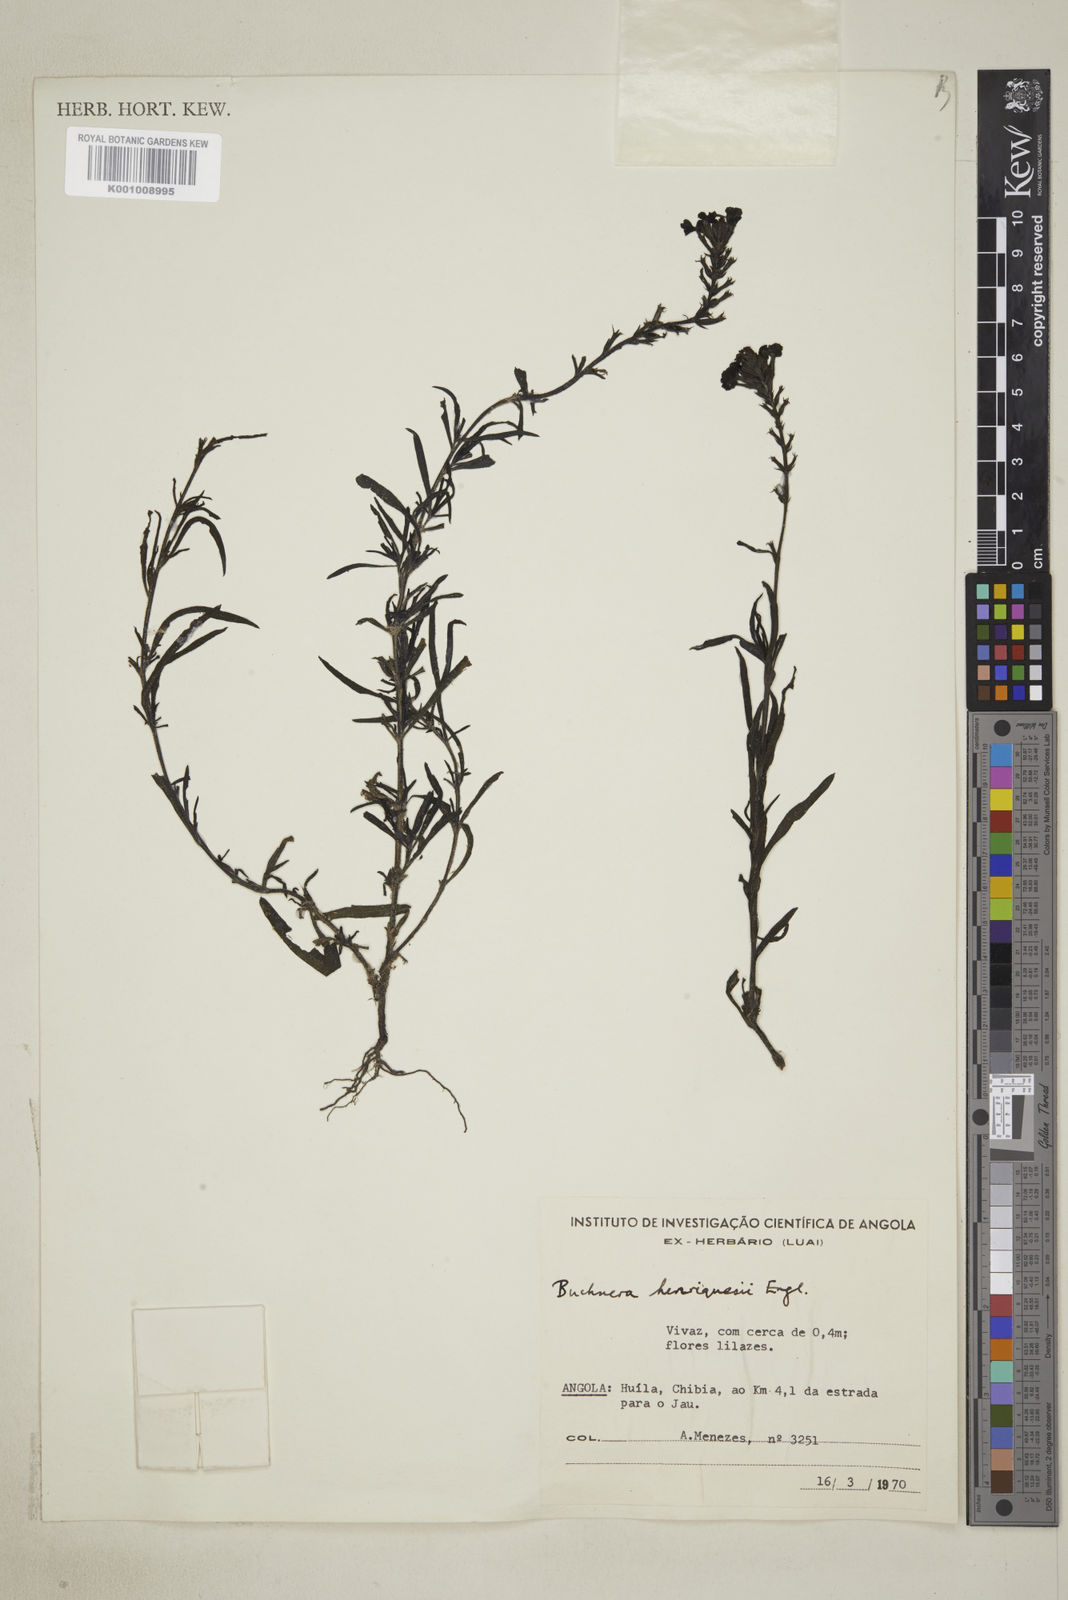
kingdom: Plantae
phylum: Tracheophyta
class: Magnoliopsida
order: Lamiales
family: Orobanchaceae
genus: Buchnera
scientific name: Buchnera henriquesii
